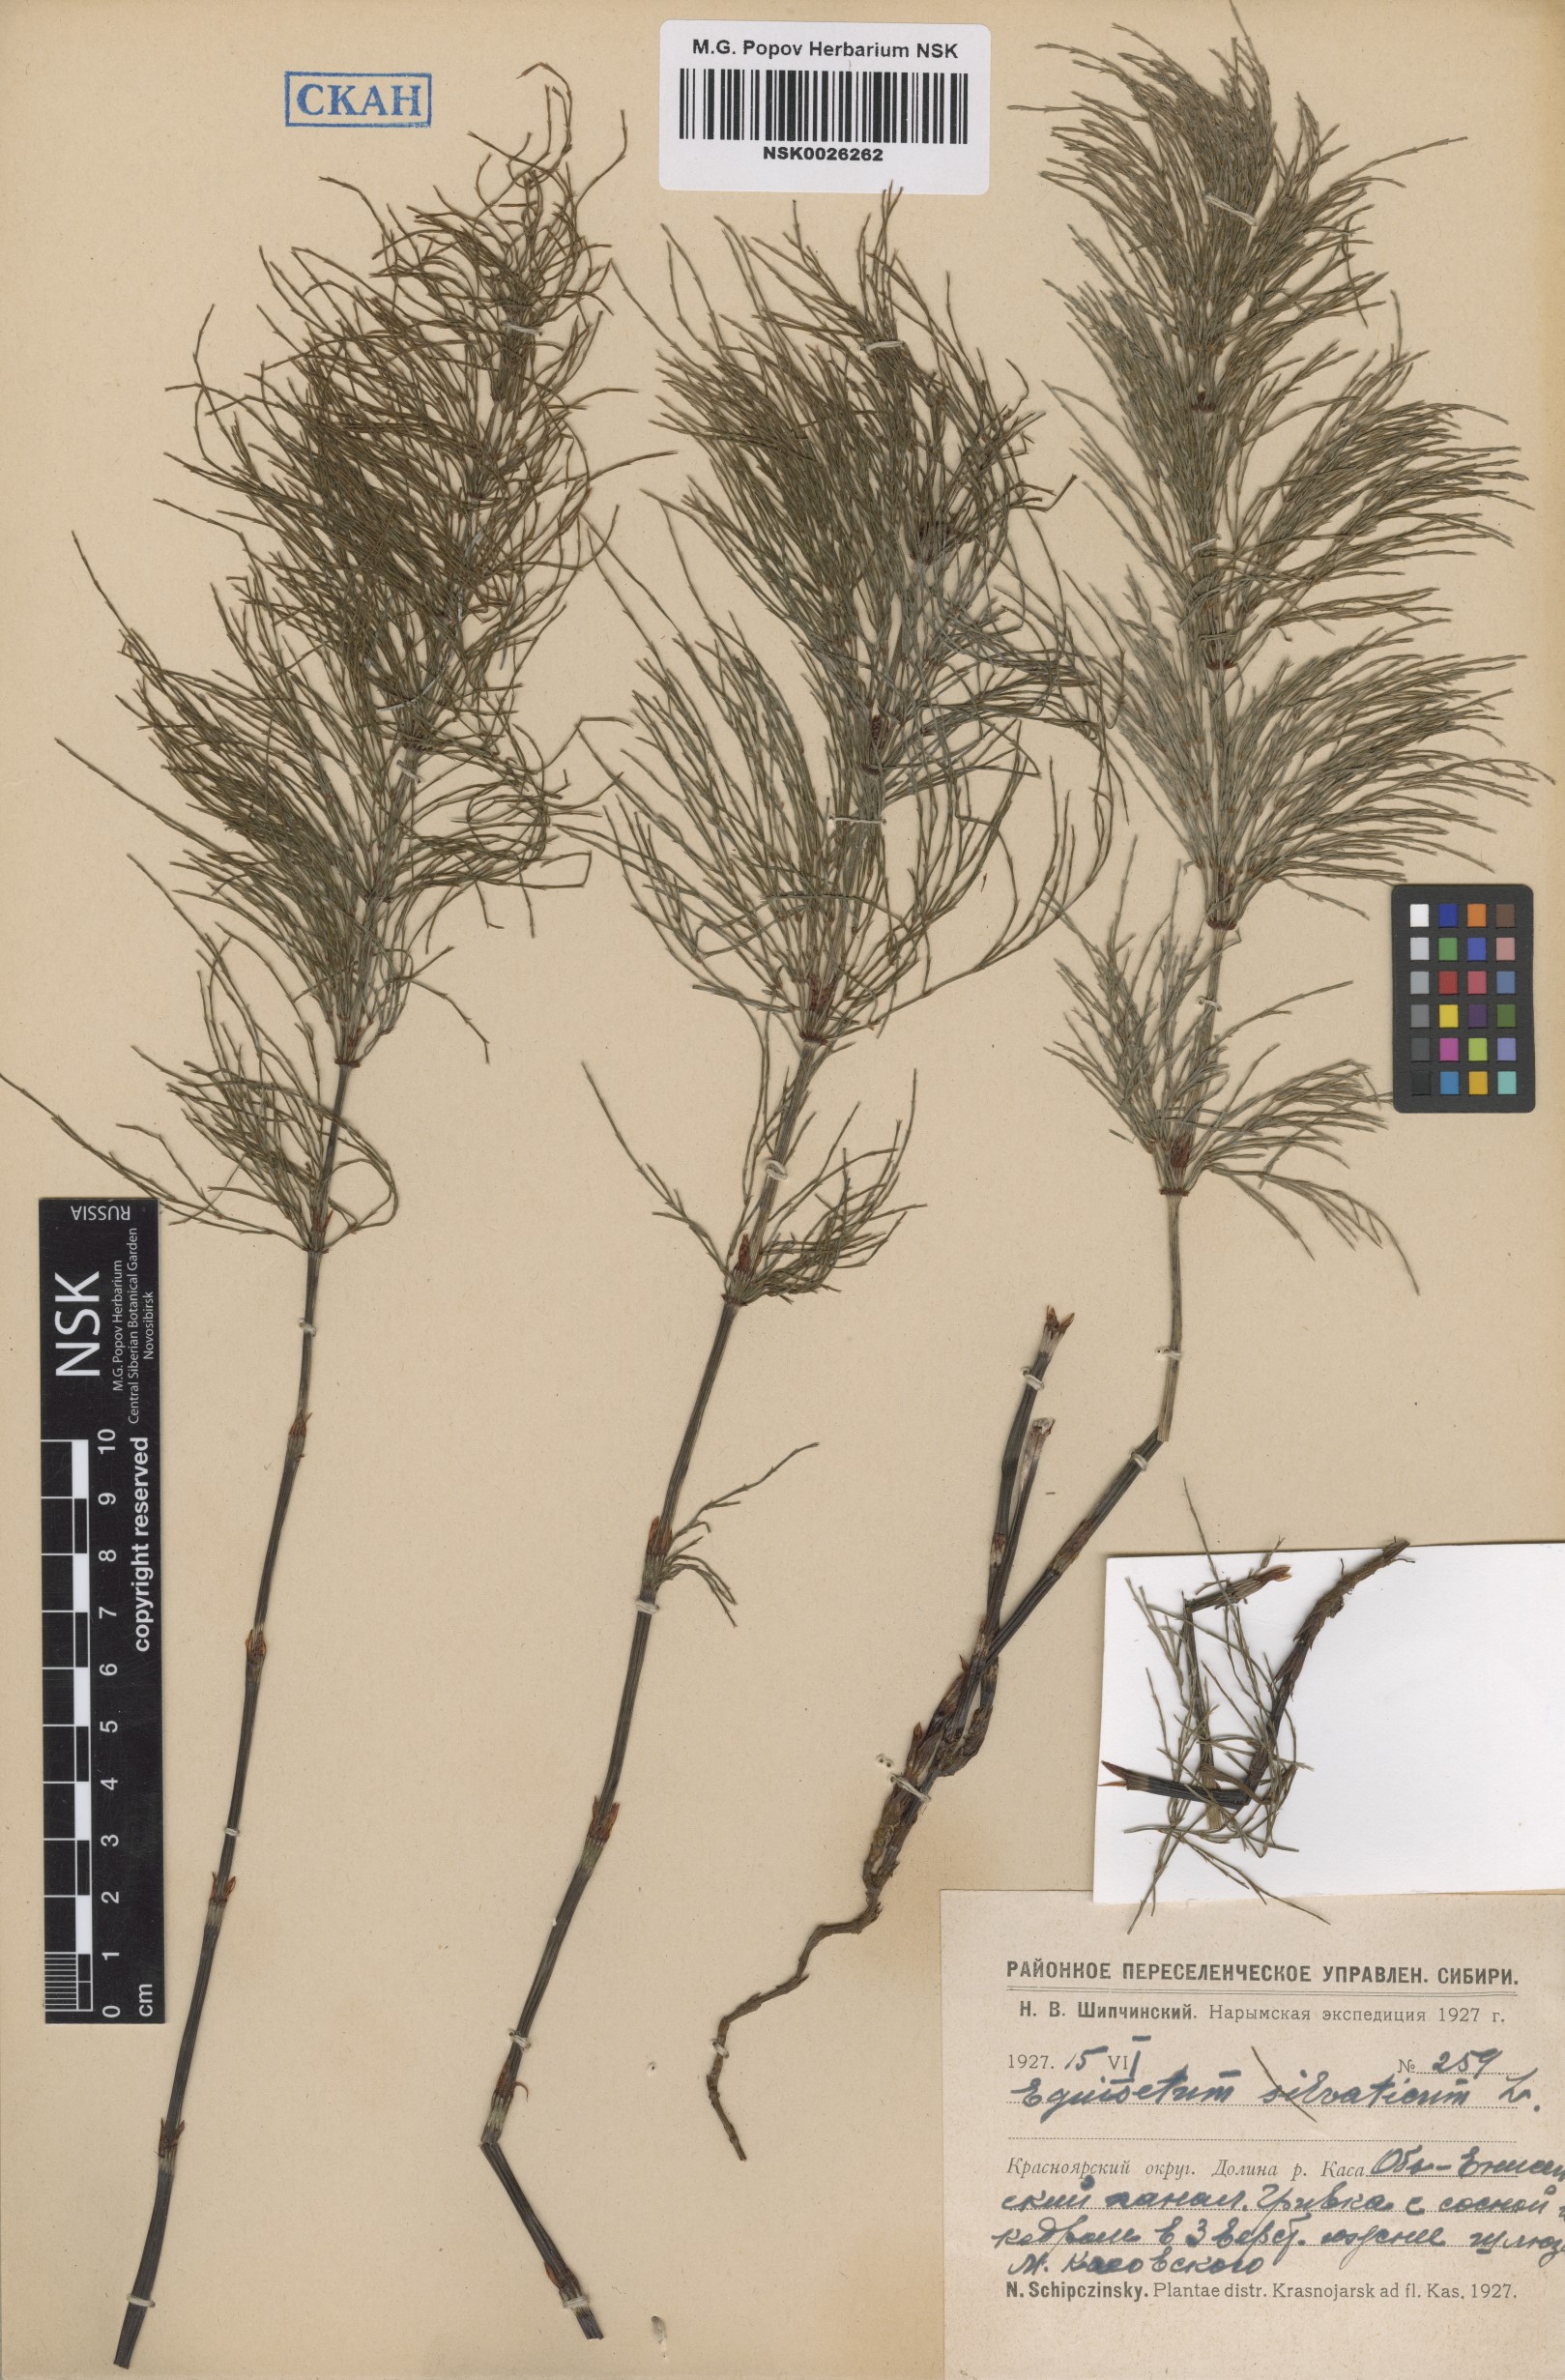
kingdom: Plantae
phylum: Tracheophyta
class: Polypodiopsida
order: Equisetales
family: Equisetaceae
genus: Equisetum
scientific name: Equisetum sylvaticum
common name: Wood horsetail
